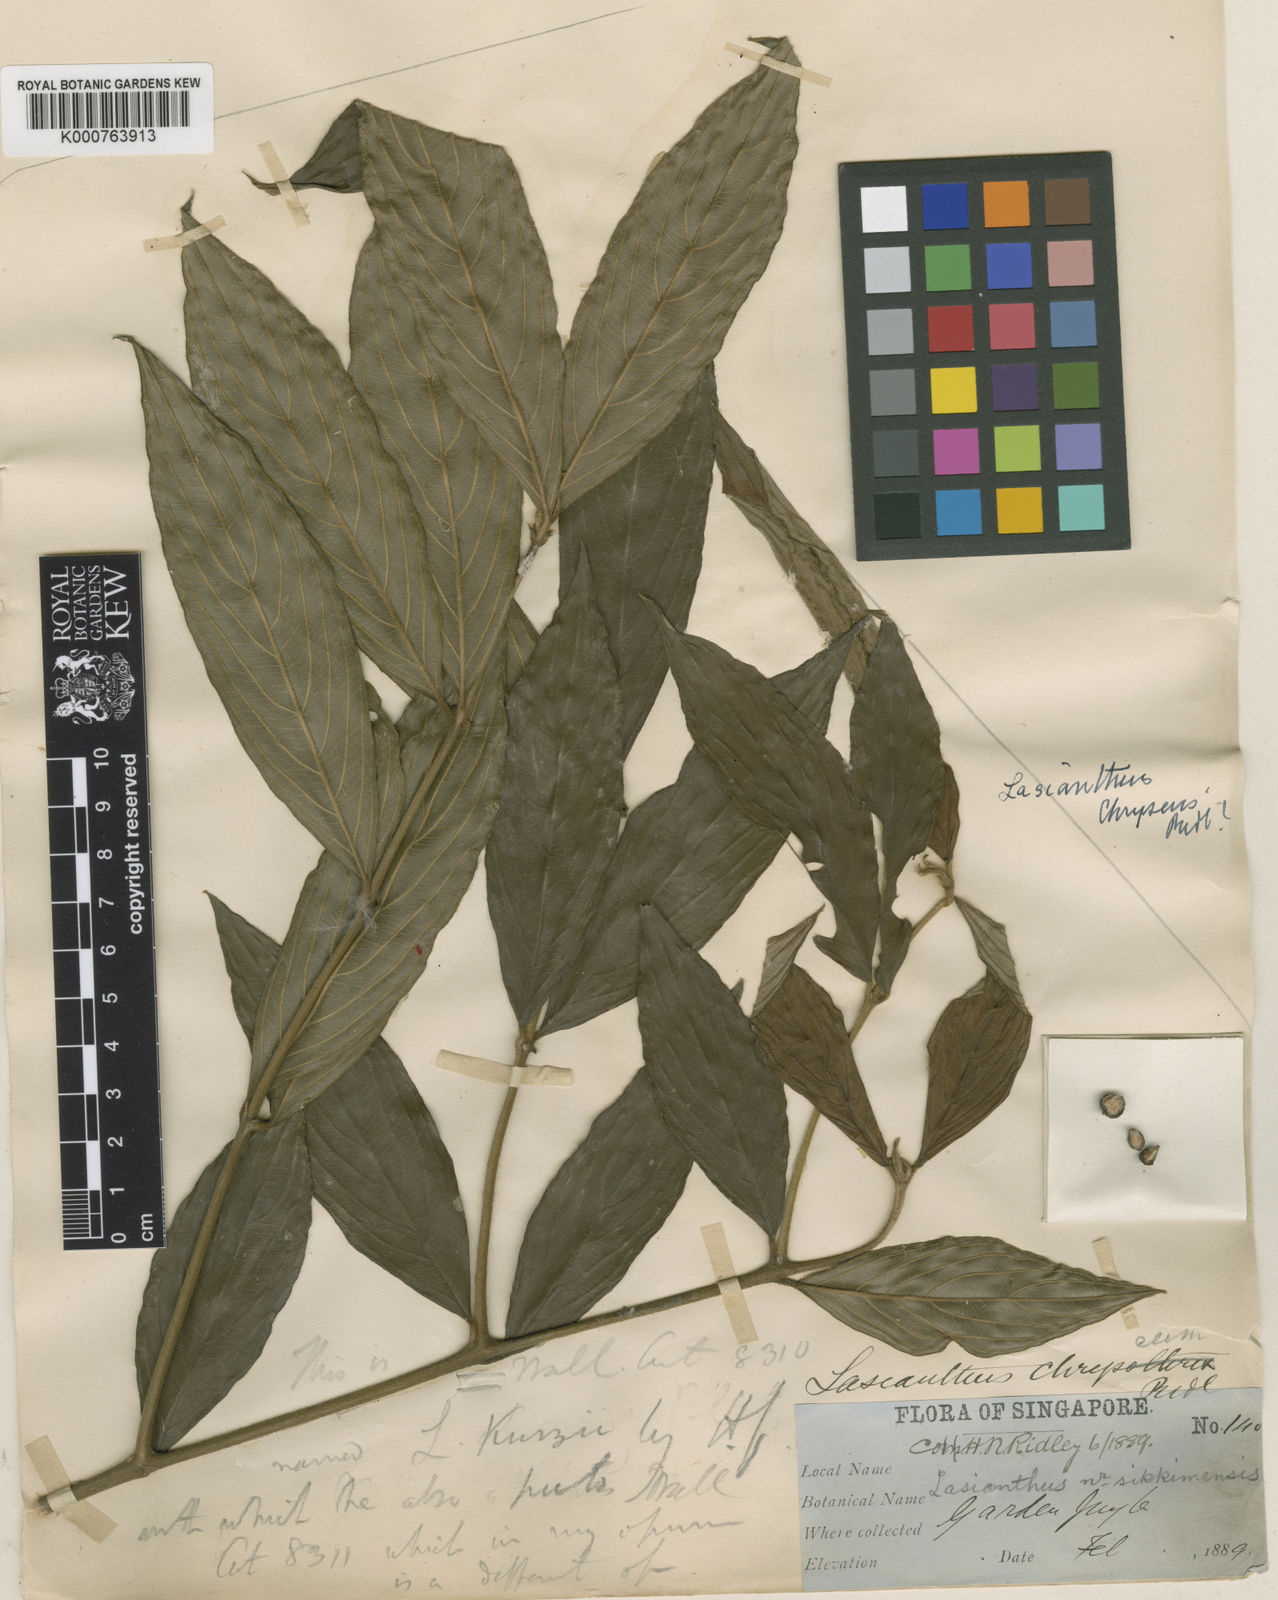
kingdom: Plantae
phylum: Tracheophyta
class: Magnoliopsida
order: Gentianales
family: Rubiaceae
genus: Lasianthus
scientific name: Lasianthus chryseus
